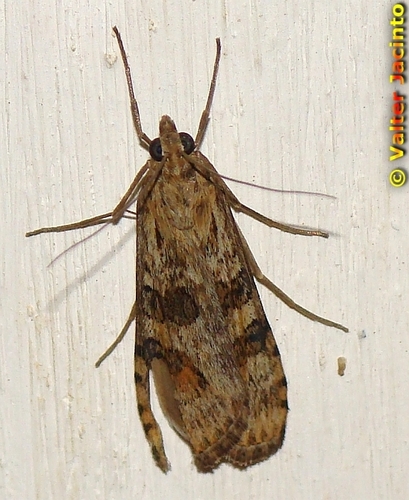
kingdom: Animalia
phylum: Arthropoda
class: Insecta
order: Lepidoptera
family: Crambidae
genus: Nomophila
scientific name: Nomophila noctuella
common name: Rush veneer
